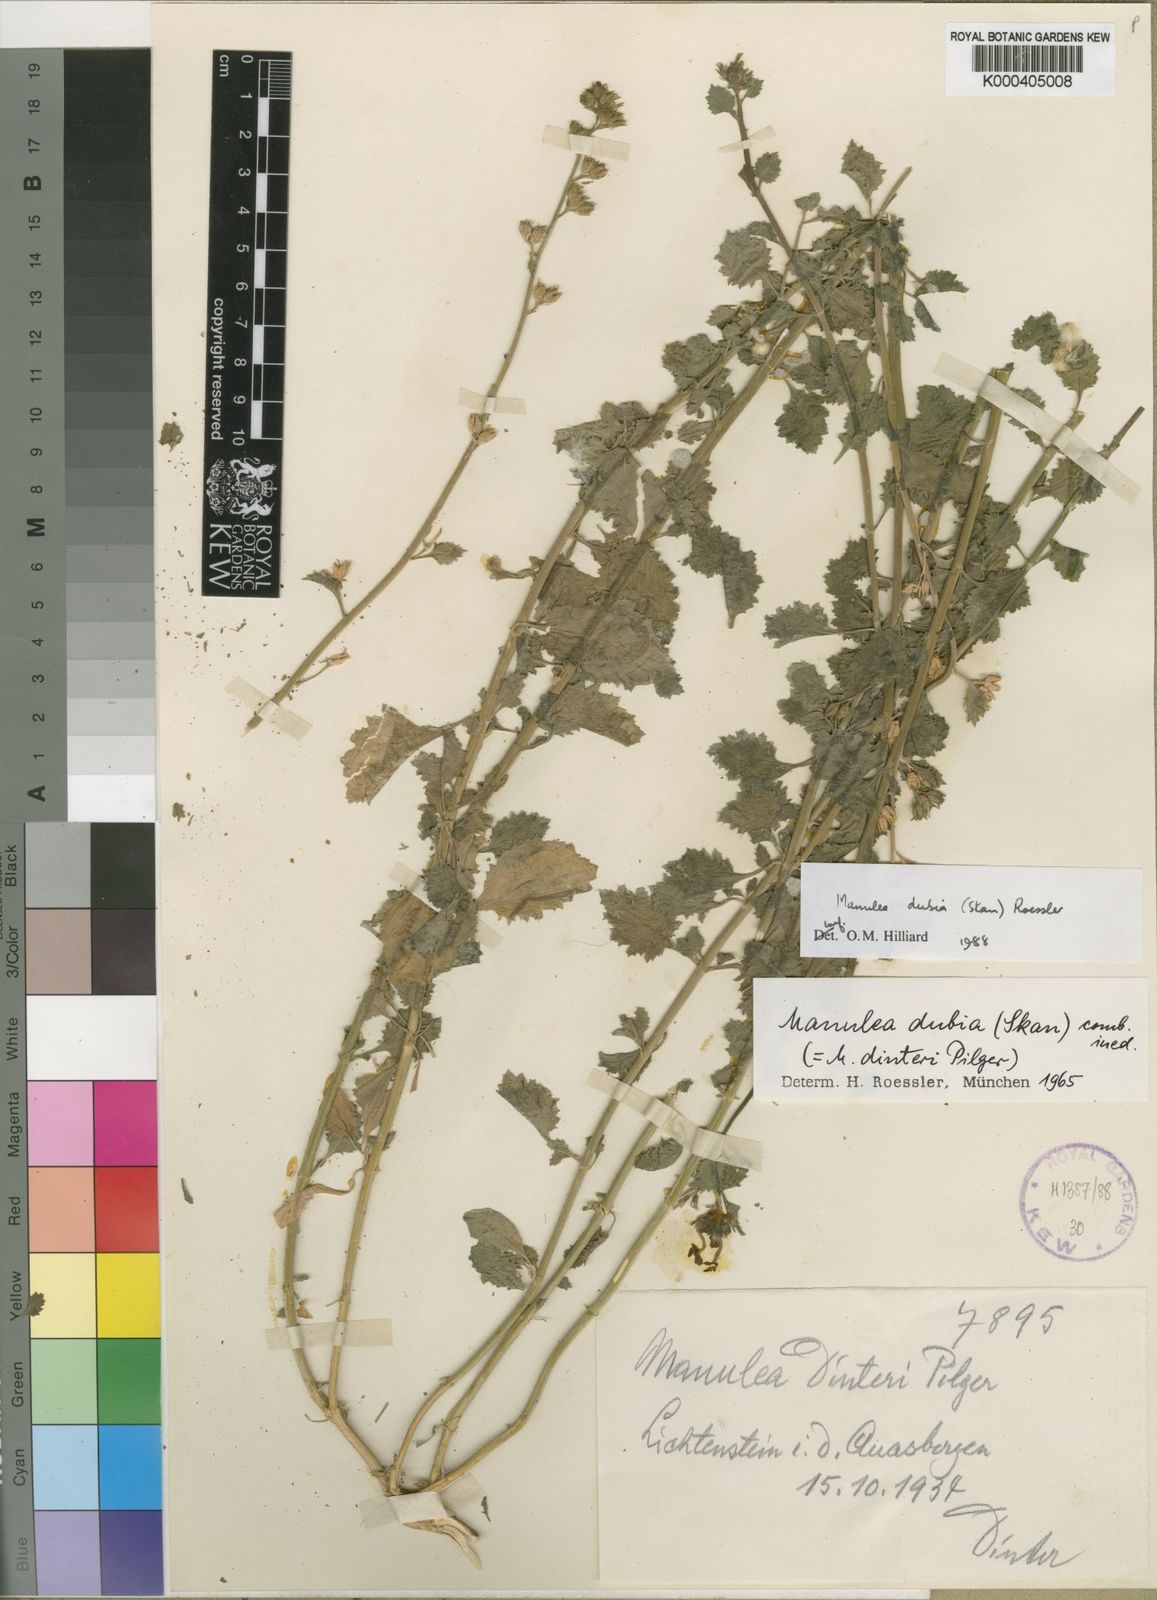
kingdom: Plantae
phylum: Tracheophyta
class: Magnoliopsida
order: Lamiales
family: Scrophulariaceae
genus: Manulea
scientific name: Manulea dubia
